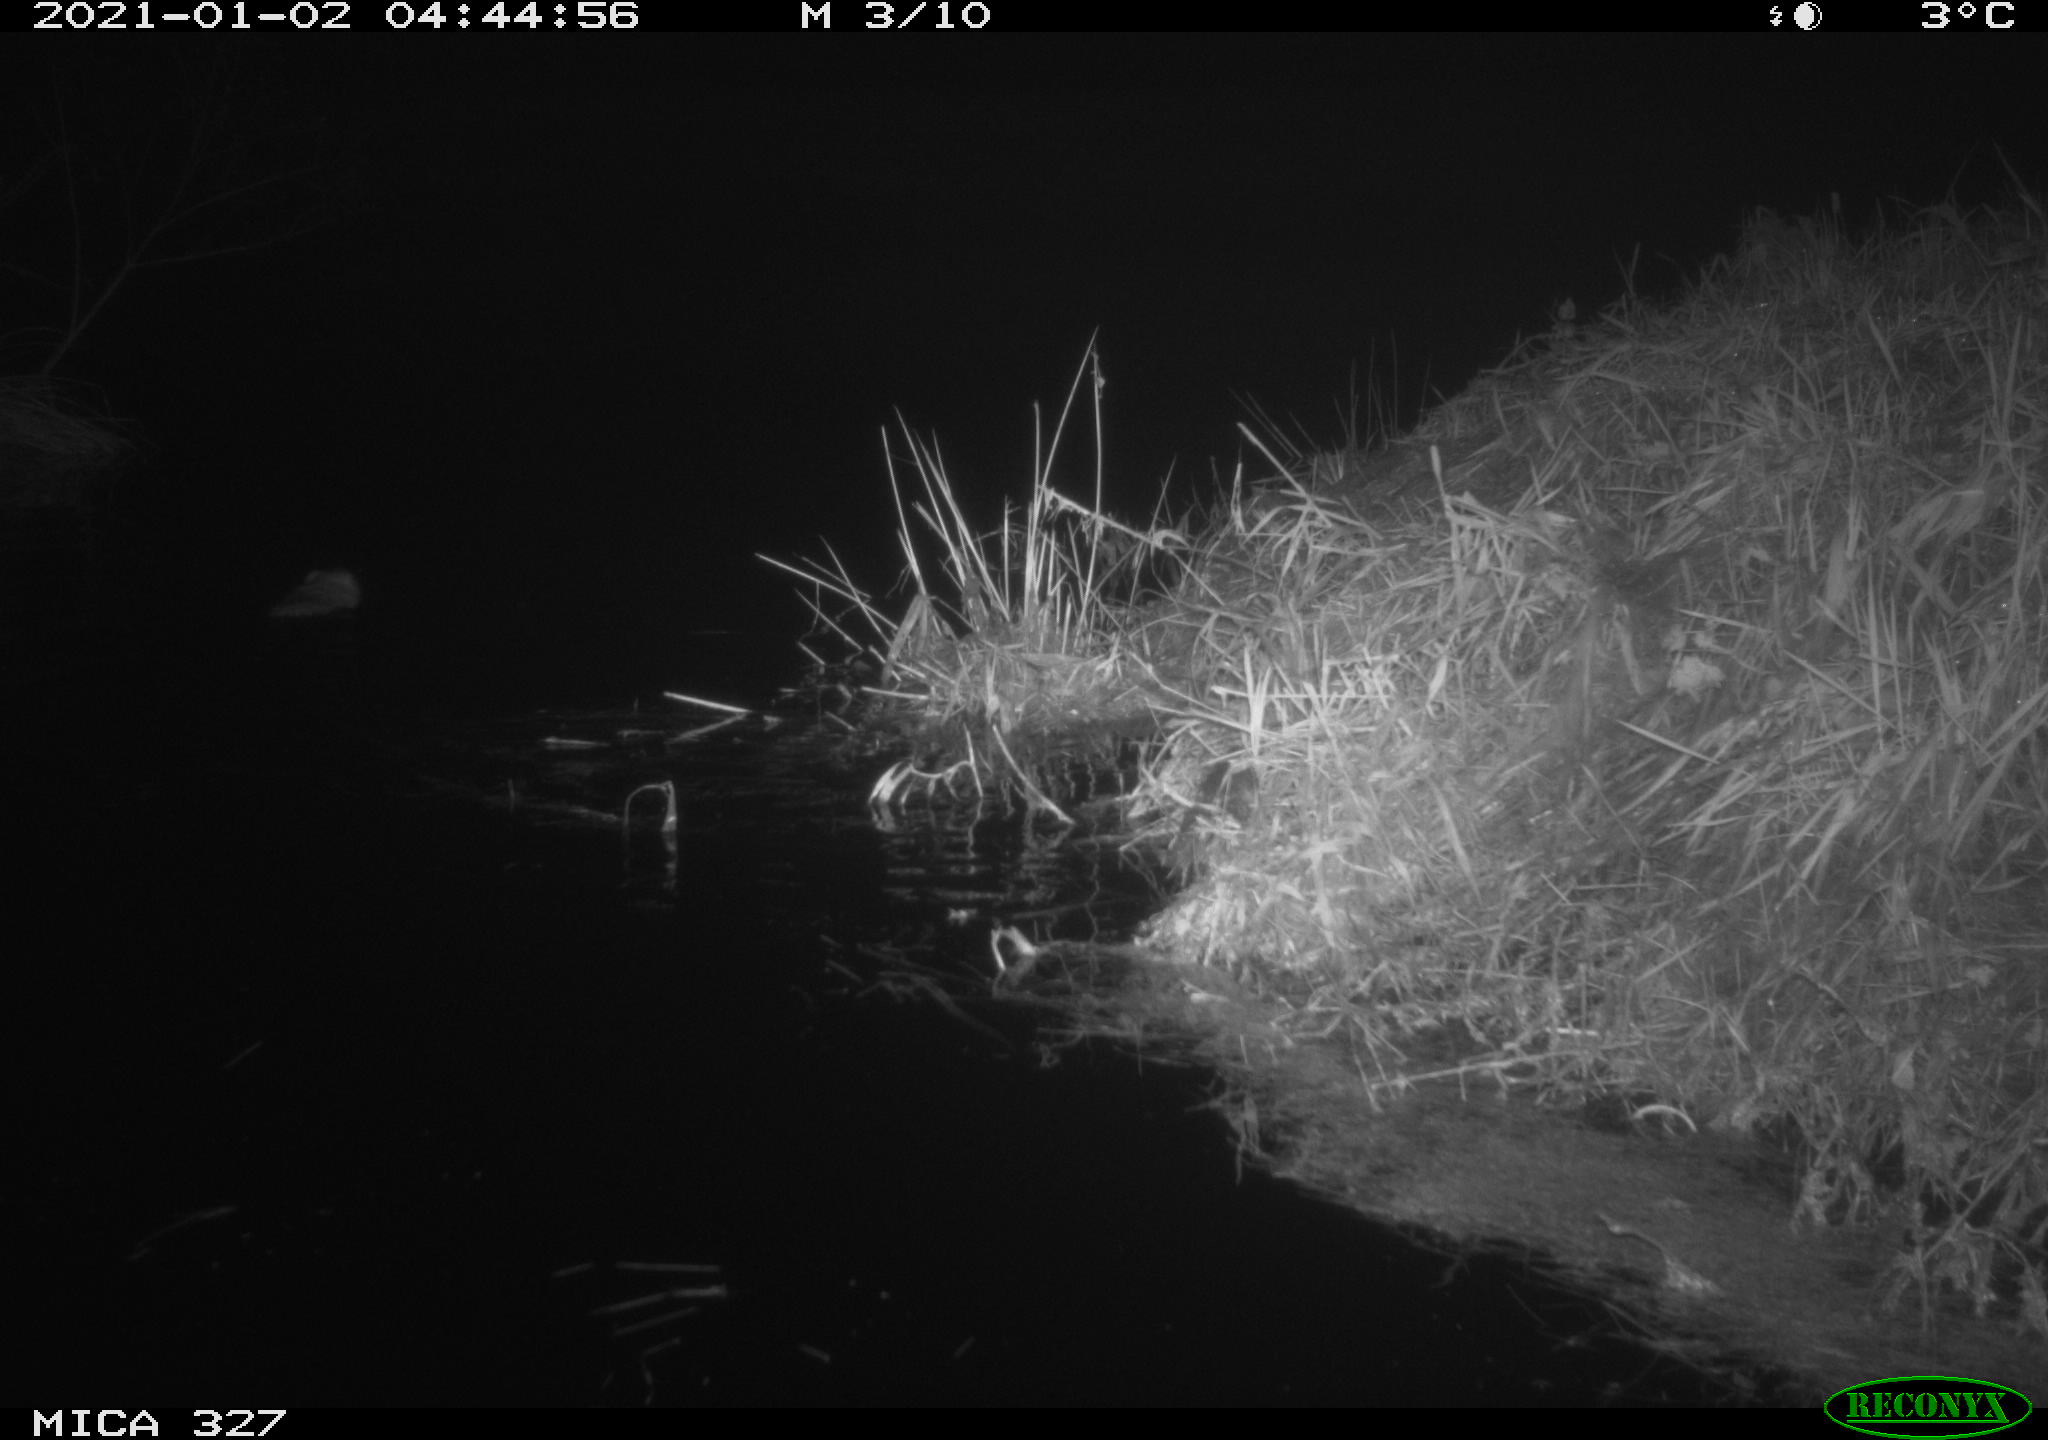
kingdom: Animalia
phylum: Chordata
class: Mammalia
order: Rodentia
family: Cricetidae
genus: Ondatra
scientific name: Ondatra zibethicus
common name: Muskrat
